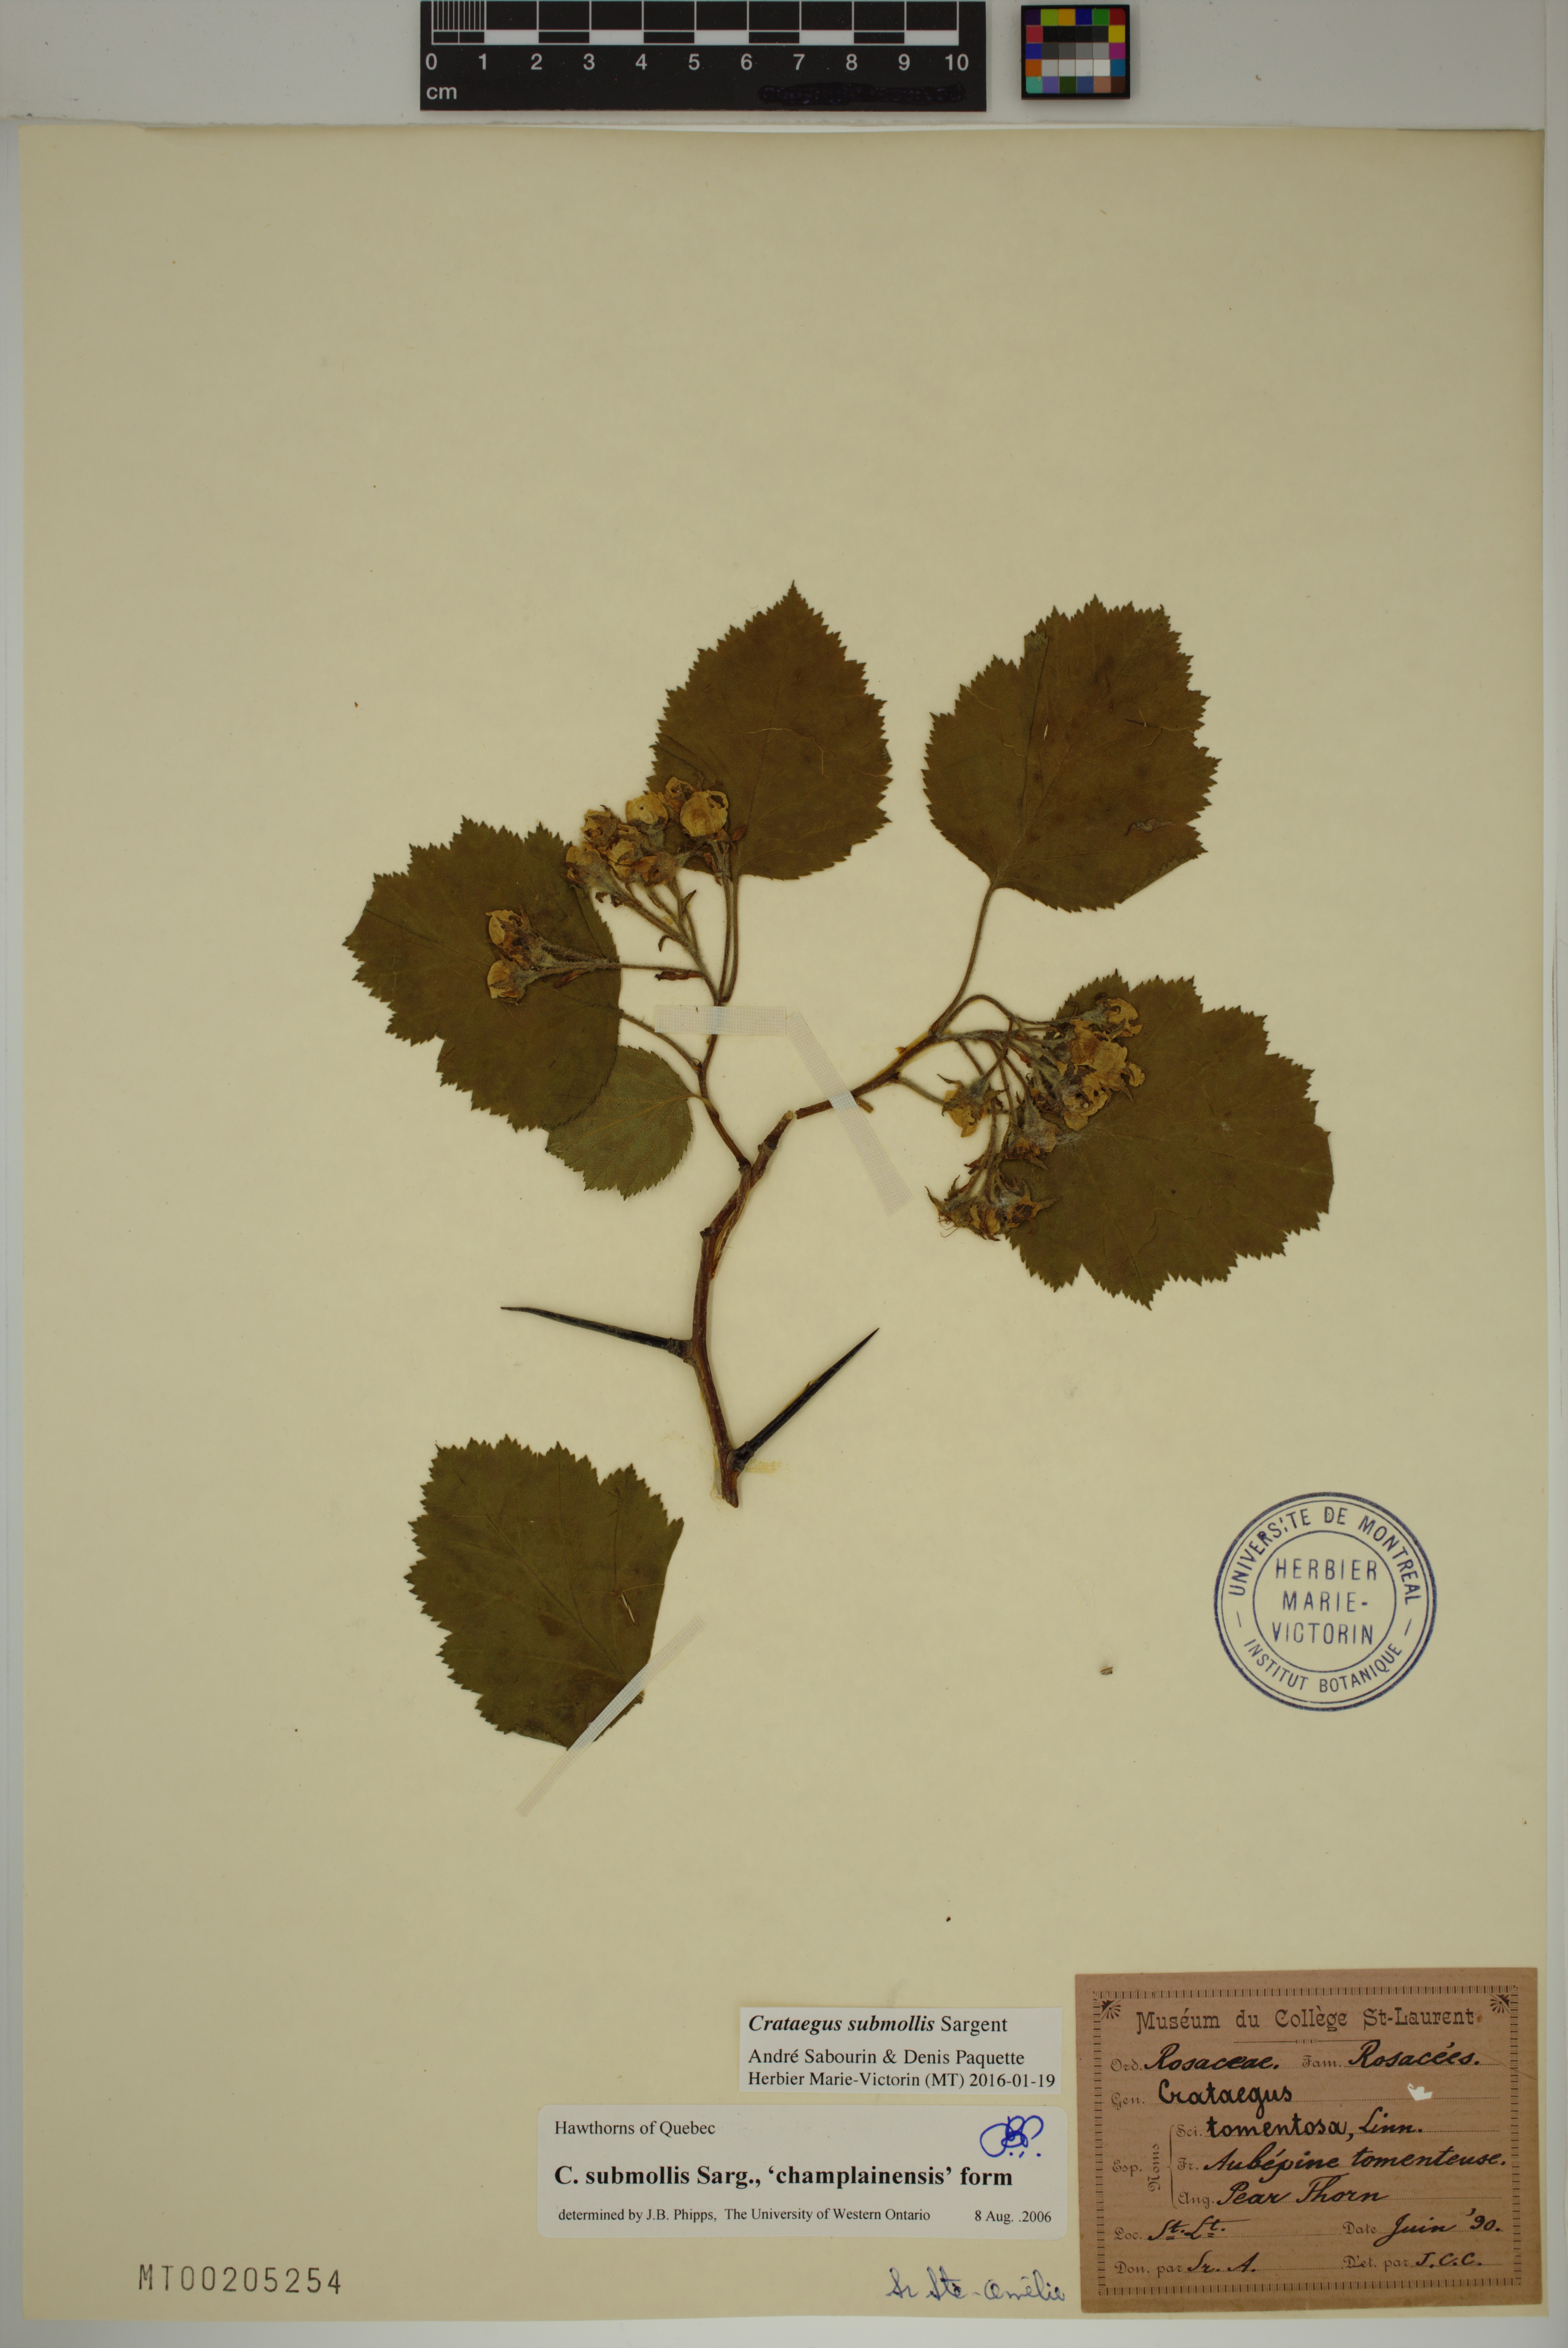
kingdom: Plantae
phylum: Tracheophyta
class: Magnoliopsida
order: Rosales
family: Rosaceae
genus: Crataegus
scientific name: Crataegus submollis
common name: Hairy cockspurthorn
